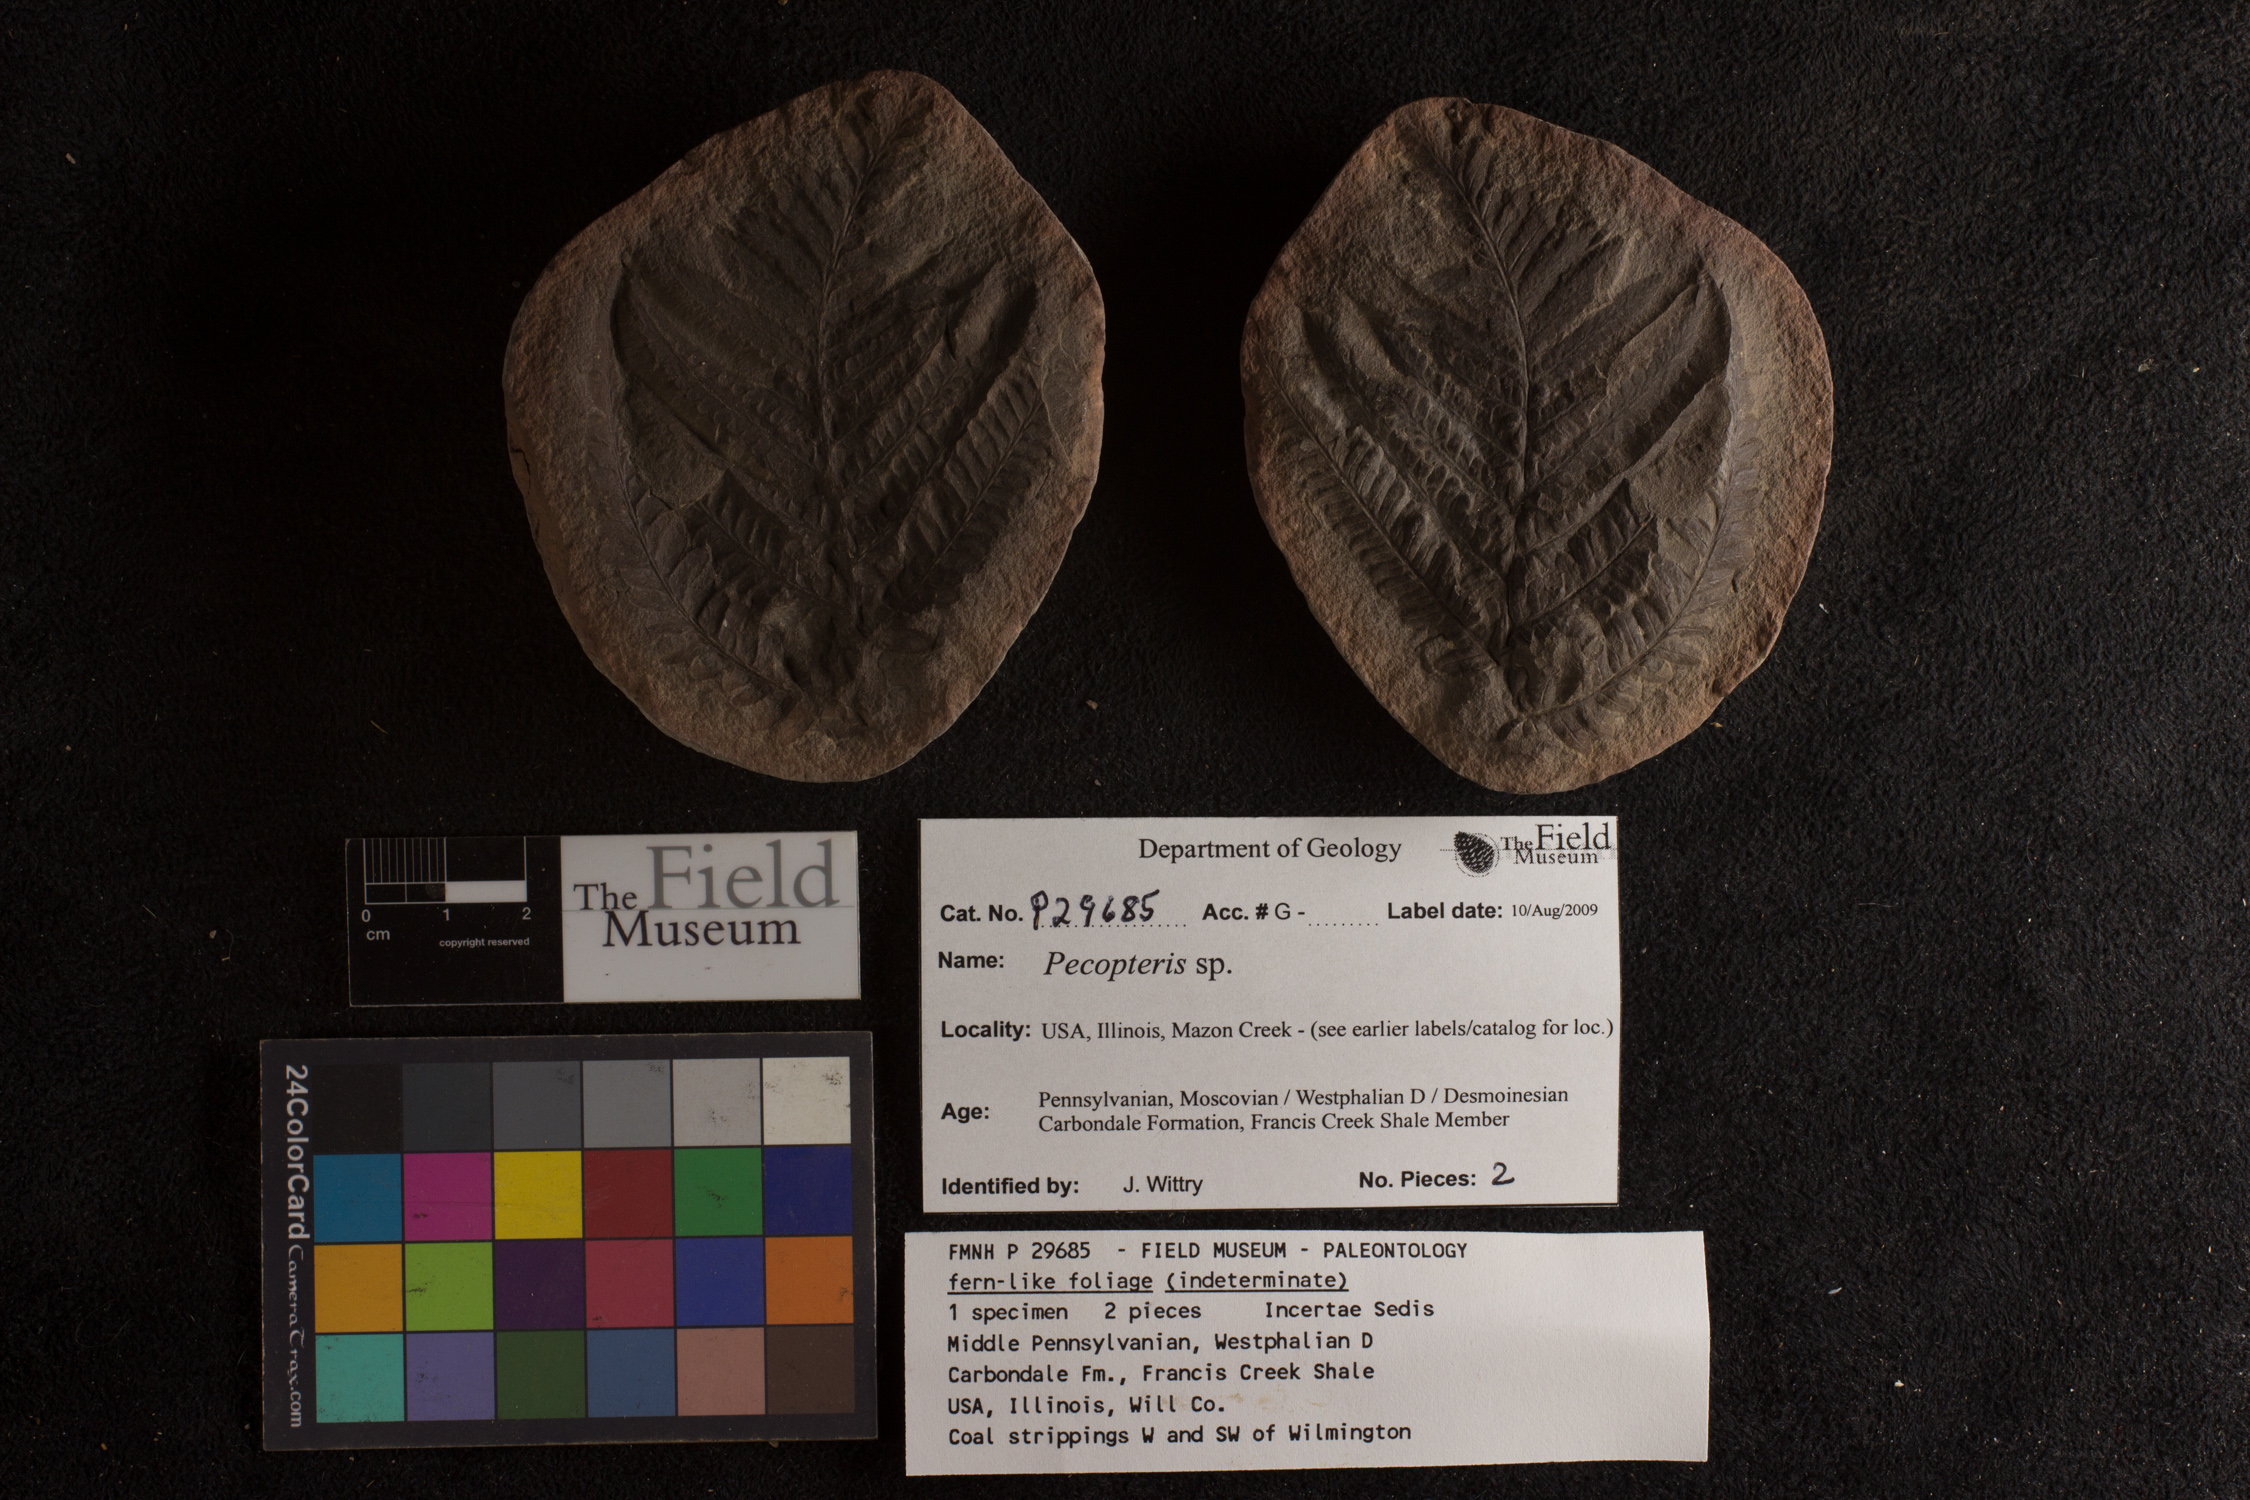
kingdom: Plantae
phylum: Tracheophyta
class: Polypodiopsida
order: Marattiales
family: Asterothecaceae
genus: Pecopteris
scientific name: Pecopteris
